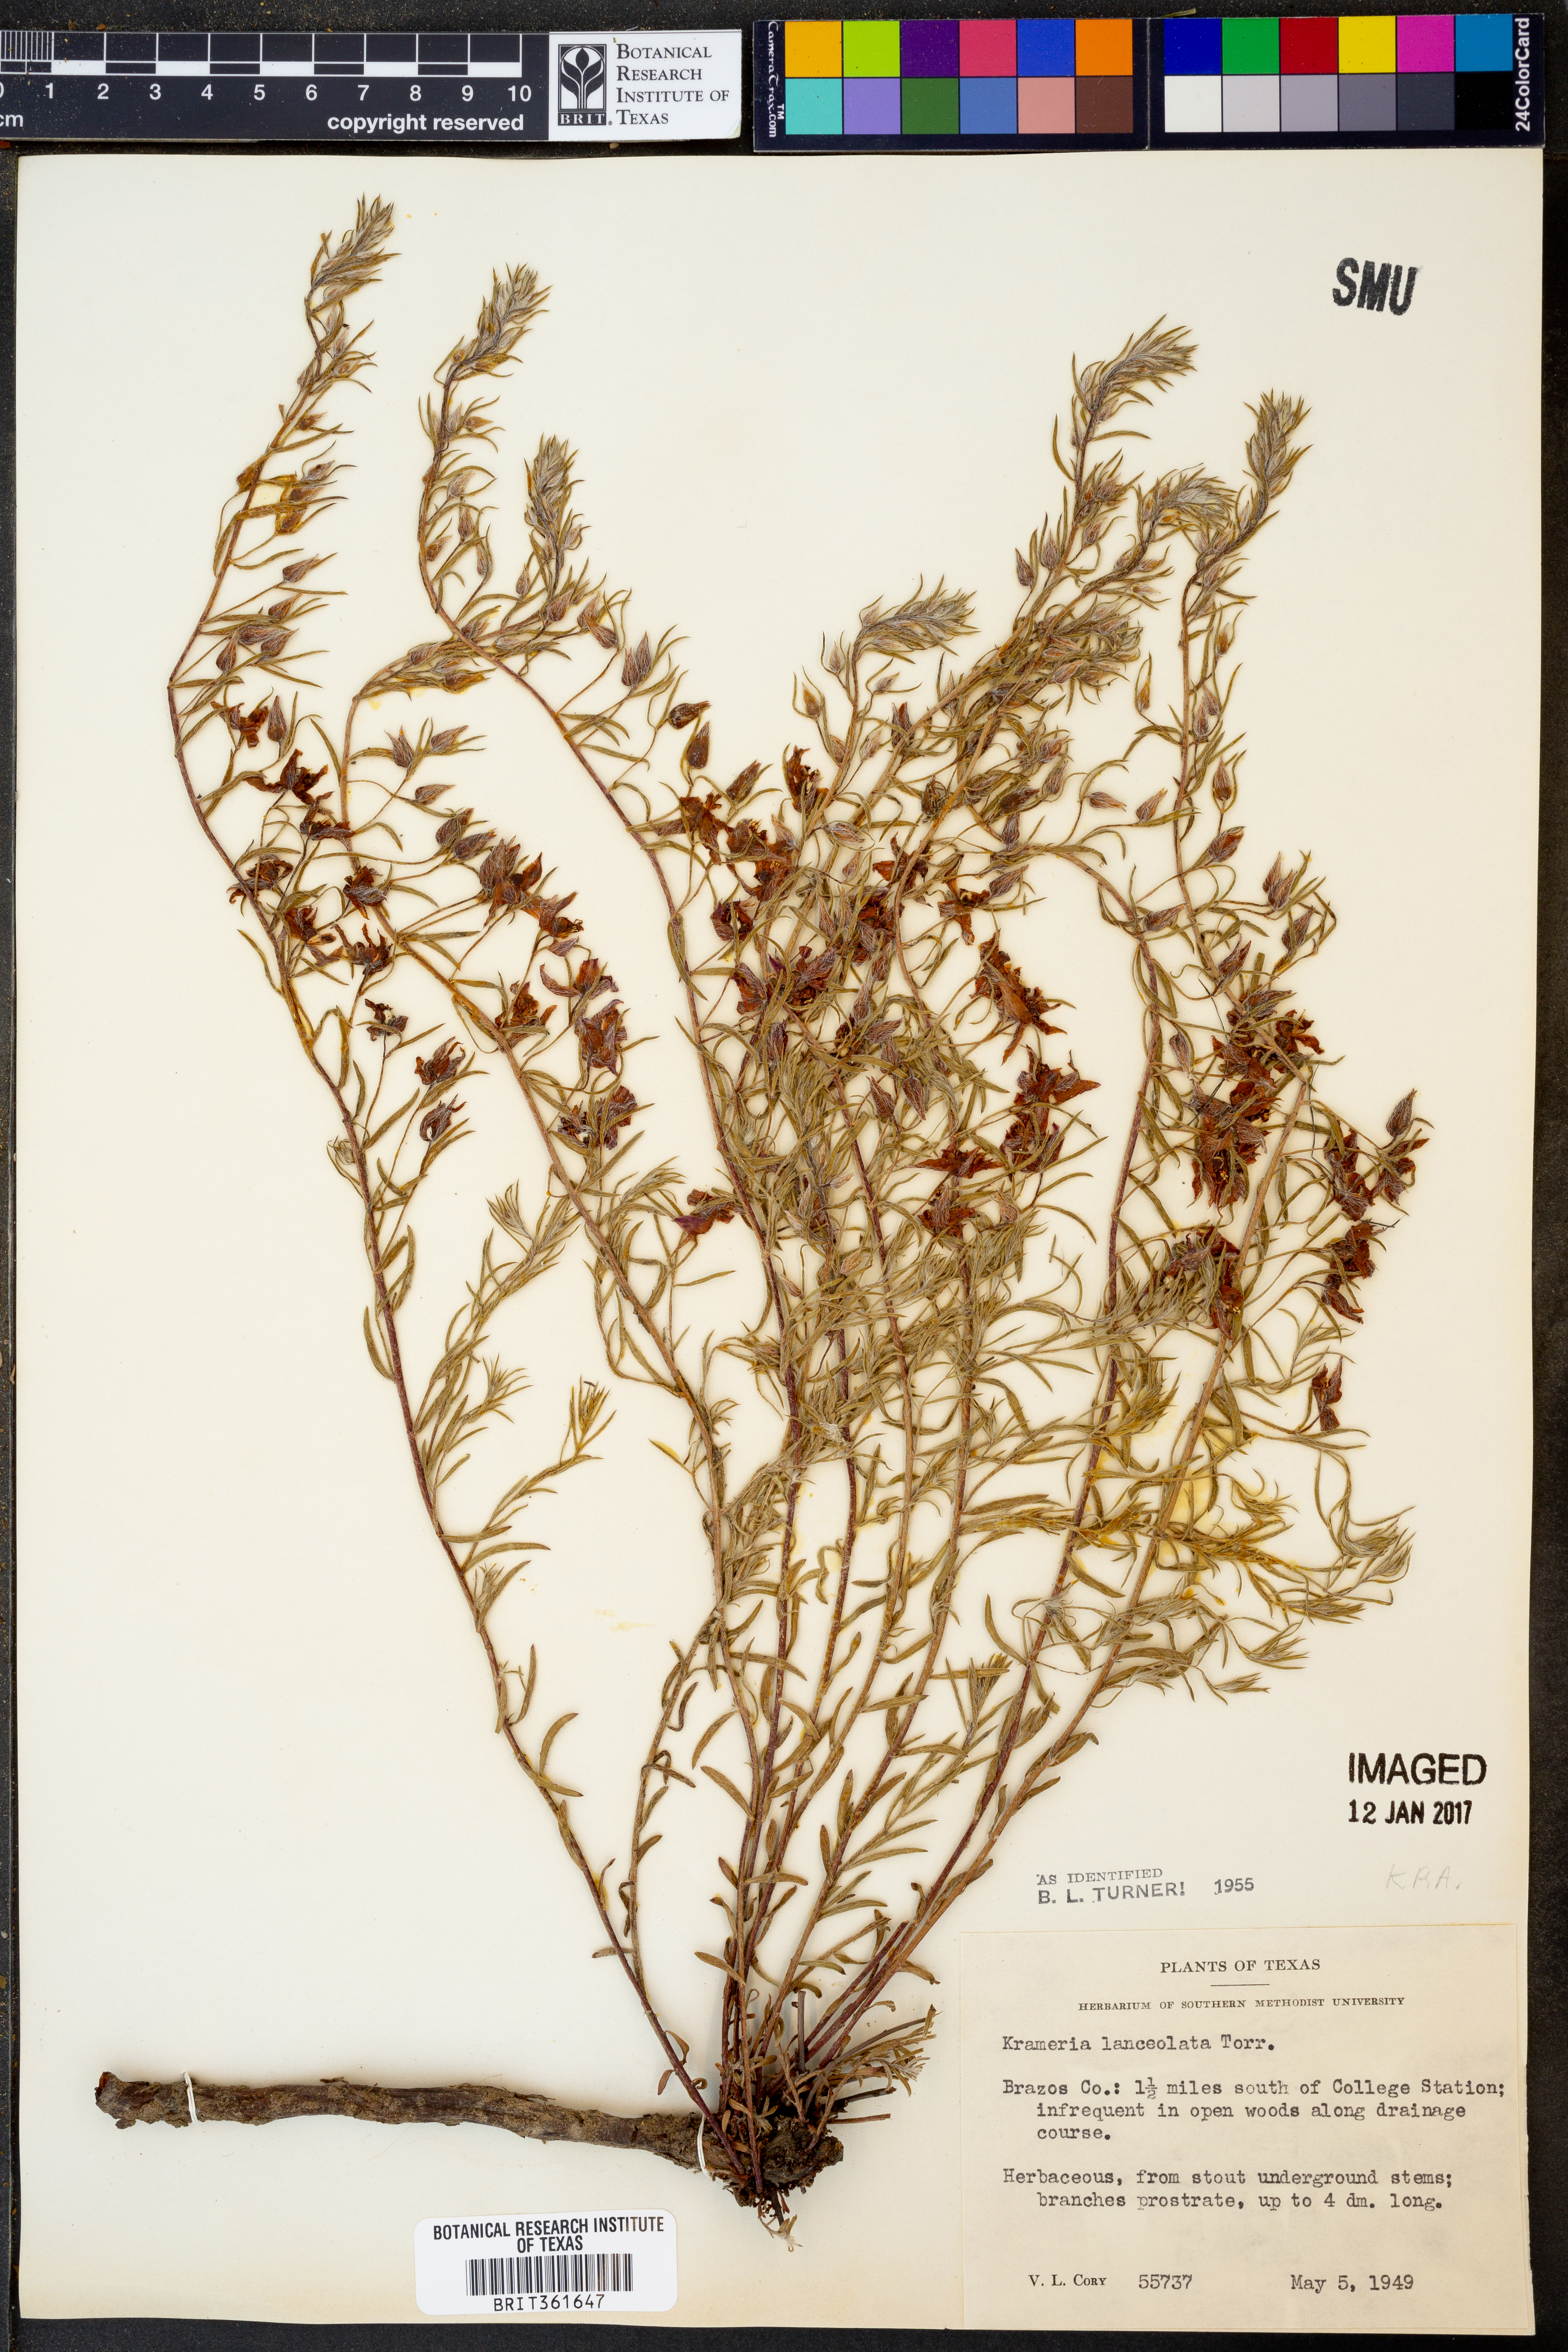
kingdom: Plantae
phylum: Tracheophyta
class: Magnoliopsida
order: Zygophyllales
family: Krameriaceae
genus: Krameria
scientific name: Krameria lanceolata
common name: Ratany
